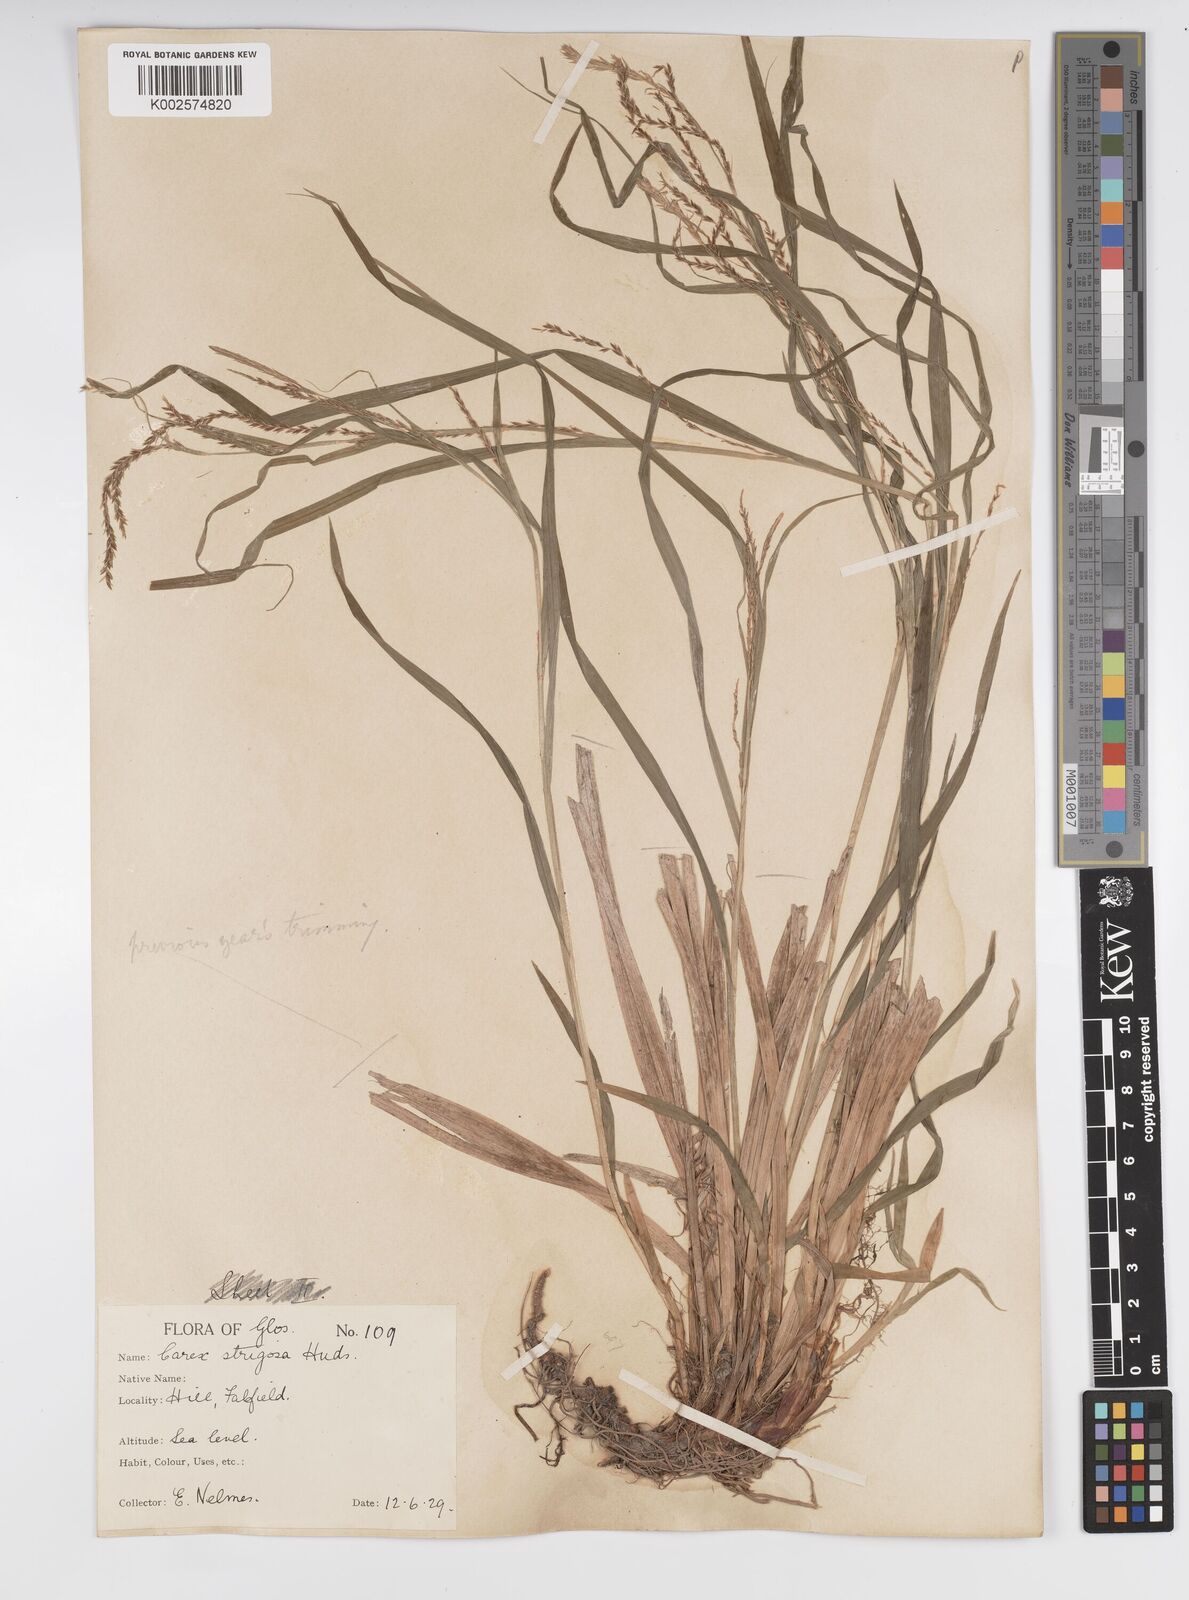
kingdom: Plantae
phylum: Tracheophyta
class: Liliopsida
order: Poales
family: Cyperaceae
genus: Carex
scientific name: Carex strigosa
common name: Thin-spiked wood-sedge
